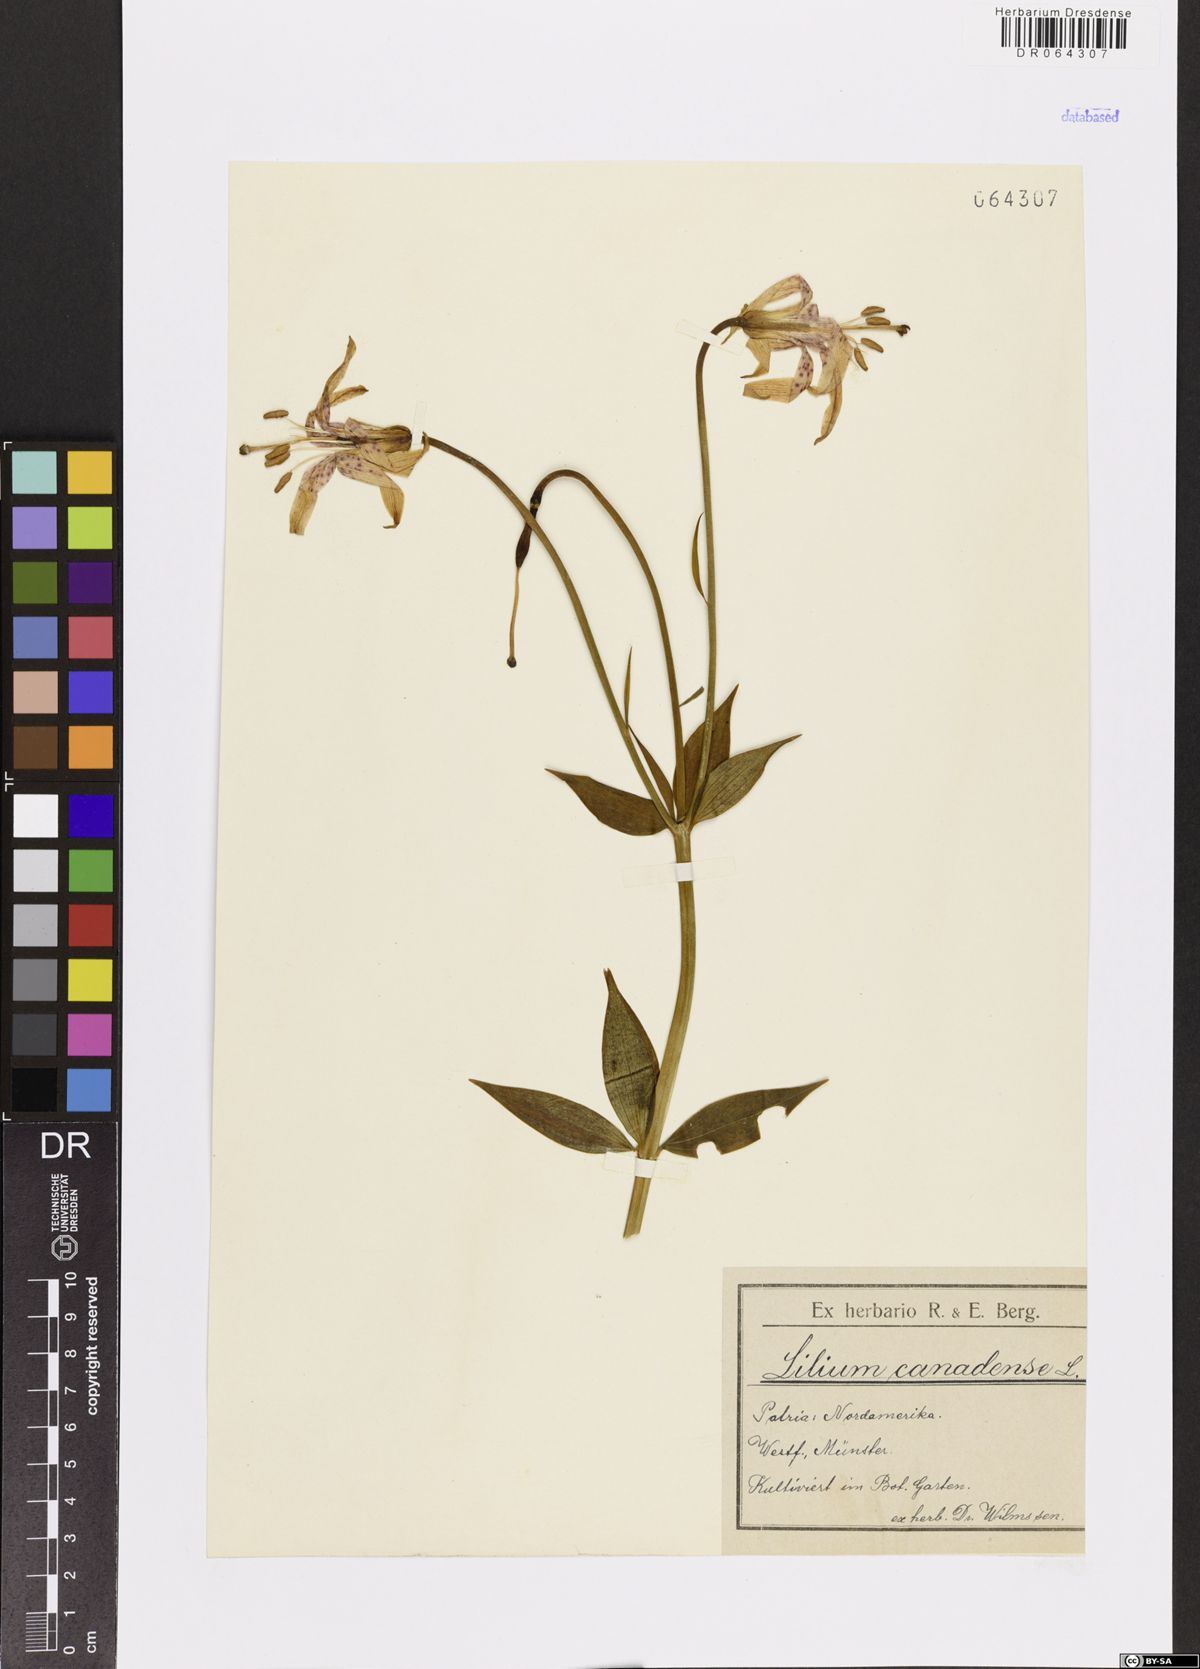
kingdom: Plantae
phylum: Tracheophyta
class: Liliopsida
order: Liliales
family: Liliaceae
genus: Lilium
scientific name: Lilium canadense
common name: Canada lily
